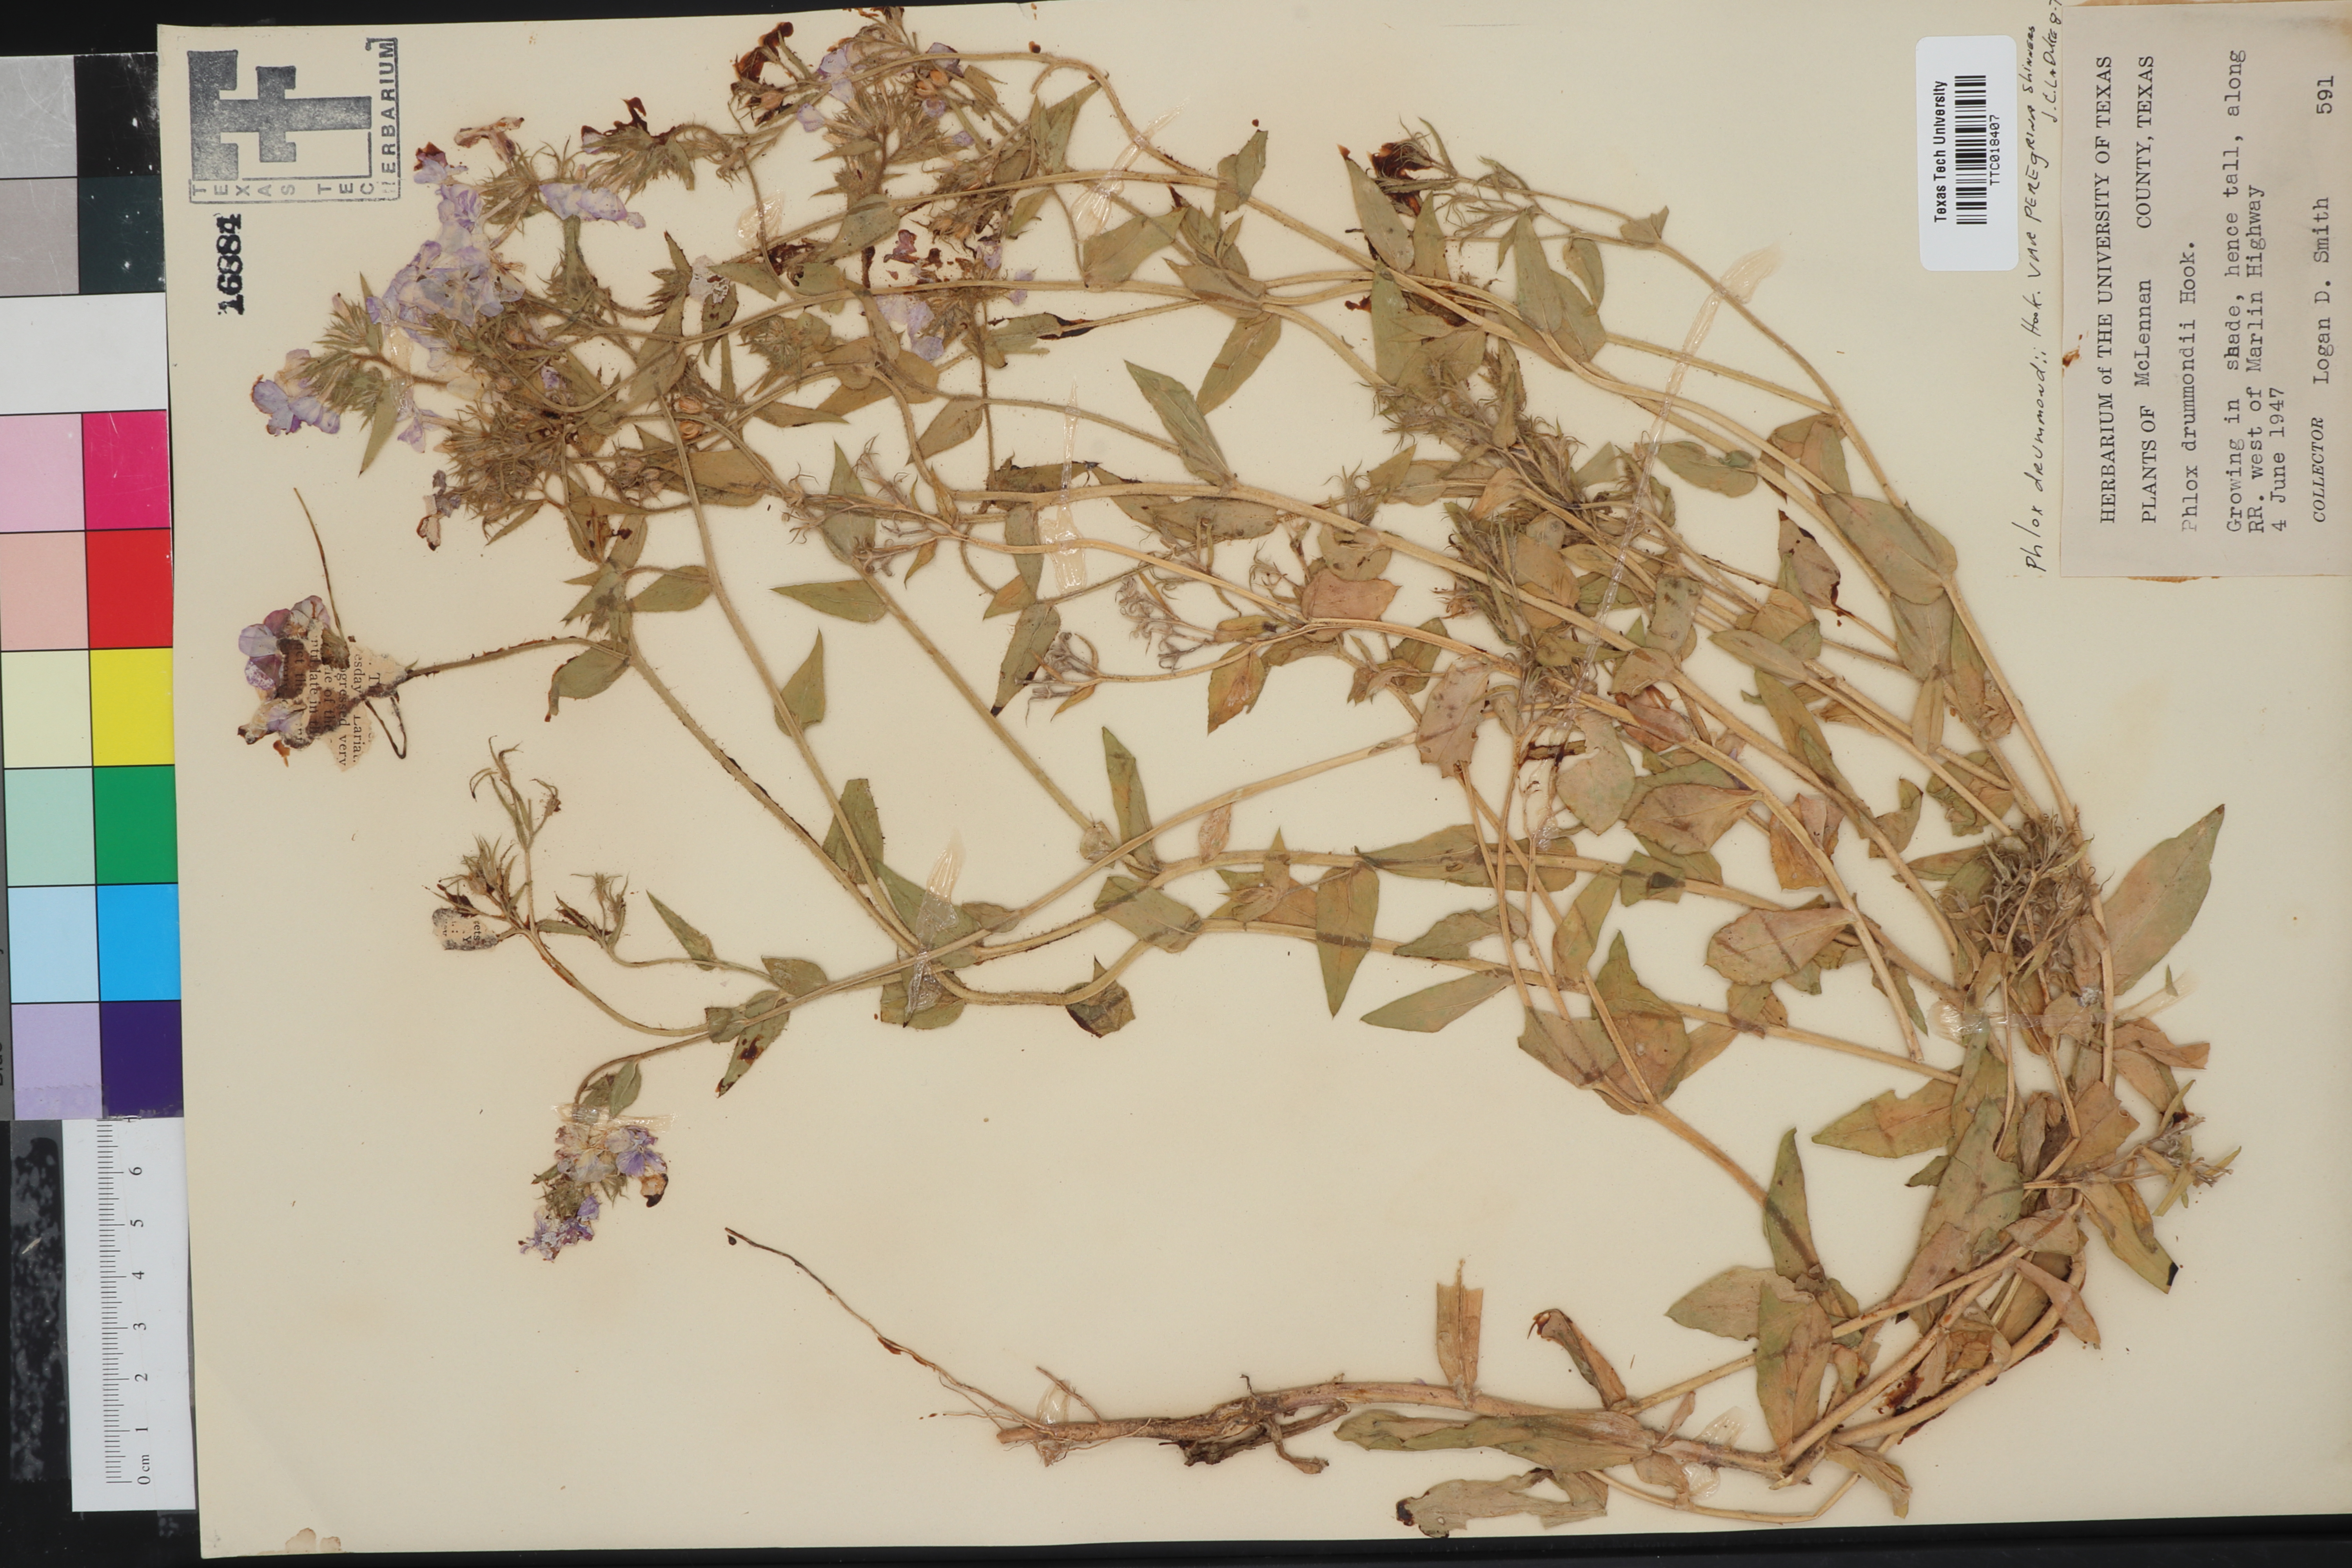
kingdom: Plantae
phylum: Tracheophyta
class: Magnoliopsida
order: Ericales
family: Polemoniaceae
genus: Phlox
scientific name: Phlox drummondii
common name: Drummond's phlox
